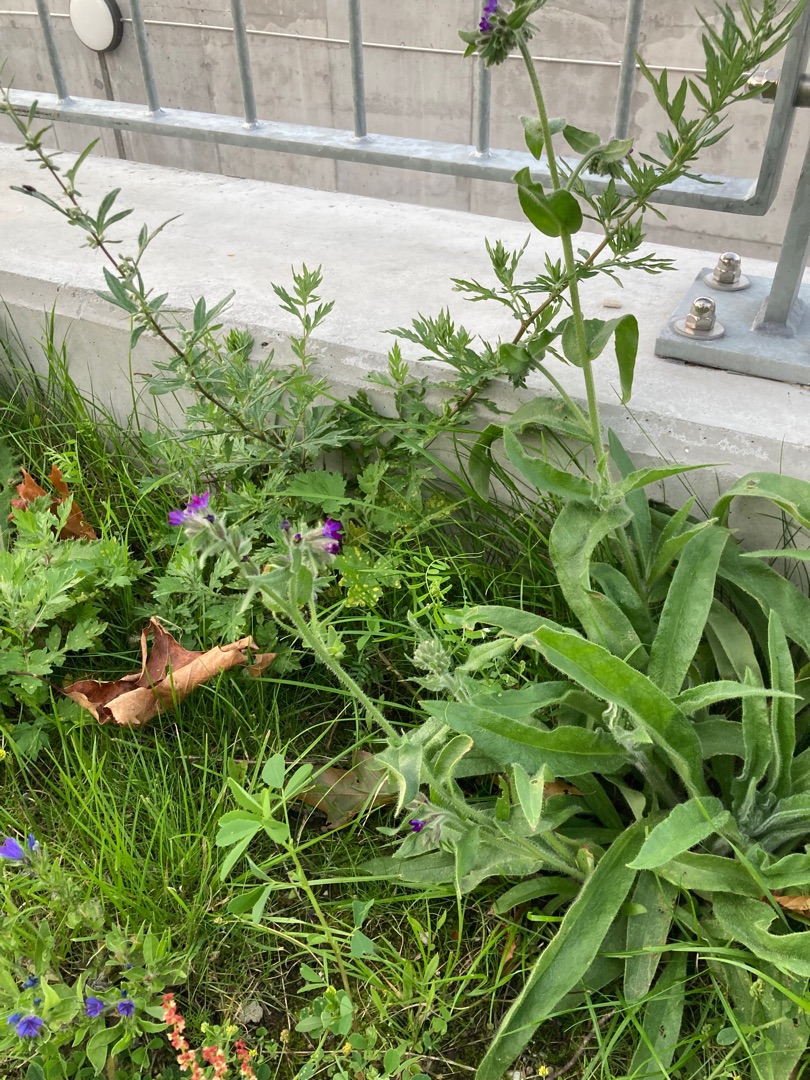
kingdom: Plantae
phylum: Tracheophyta
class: Magnoliopsida
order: Boraginales
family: Boraginaceae
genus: Anchusa
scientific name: Anchusa officinalis
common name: Læge-oksetunge
